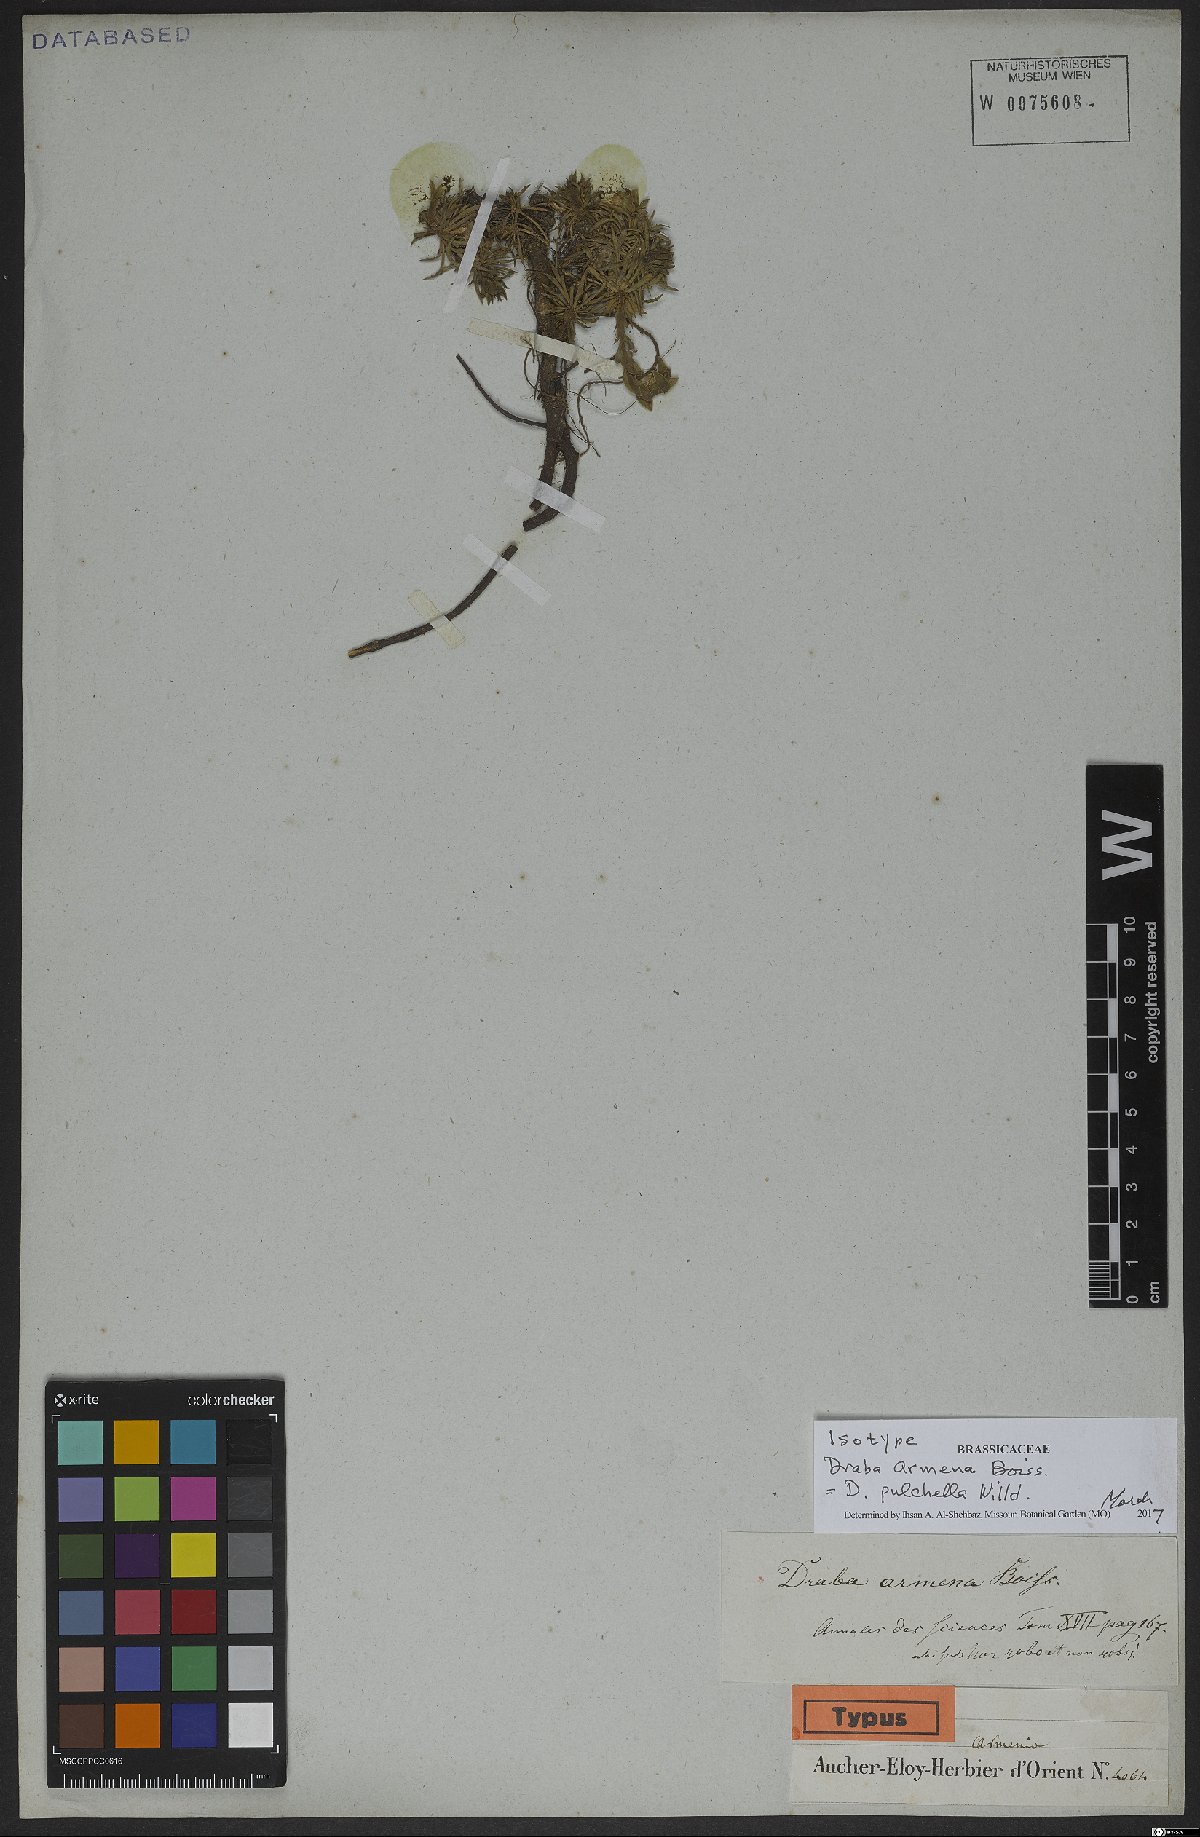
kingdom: Plantae
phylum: Tracheophyta
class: Magnoliopsida
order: Brassicales
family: Brassicaceae
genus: Draba
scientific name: Draba pulchella
